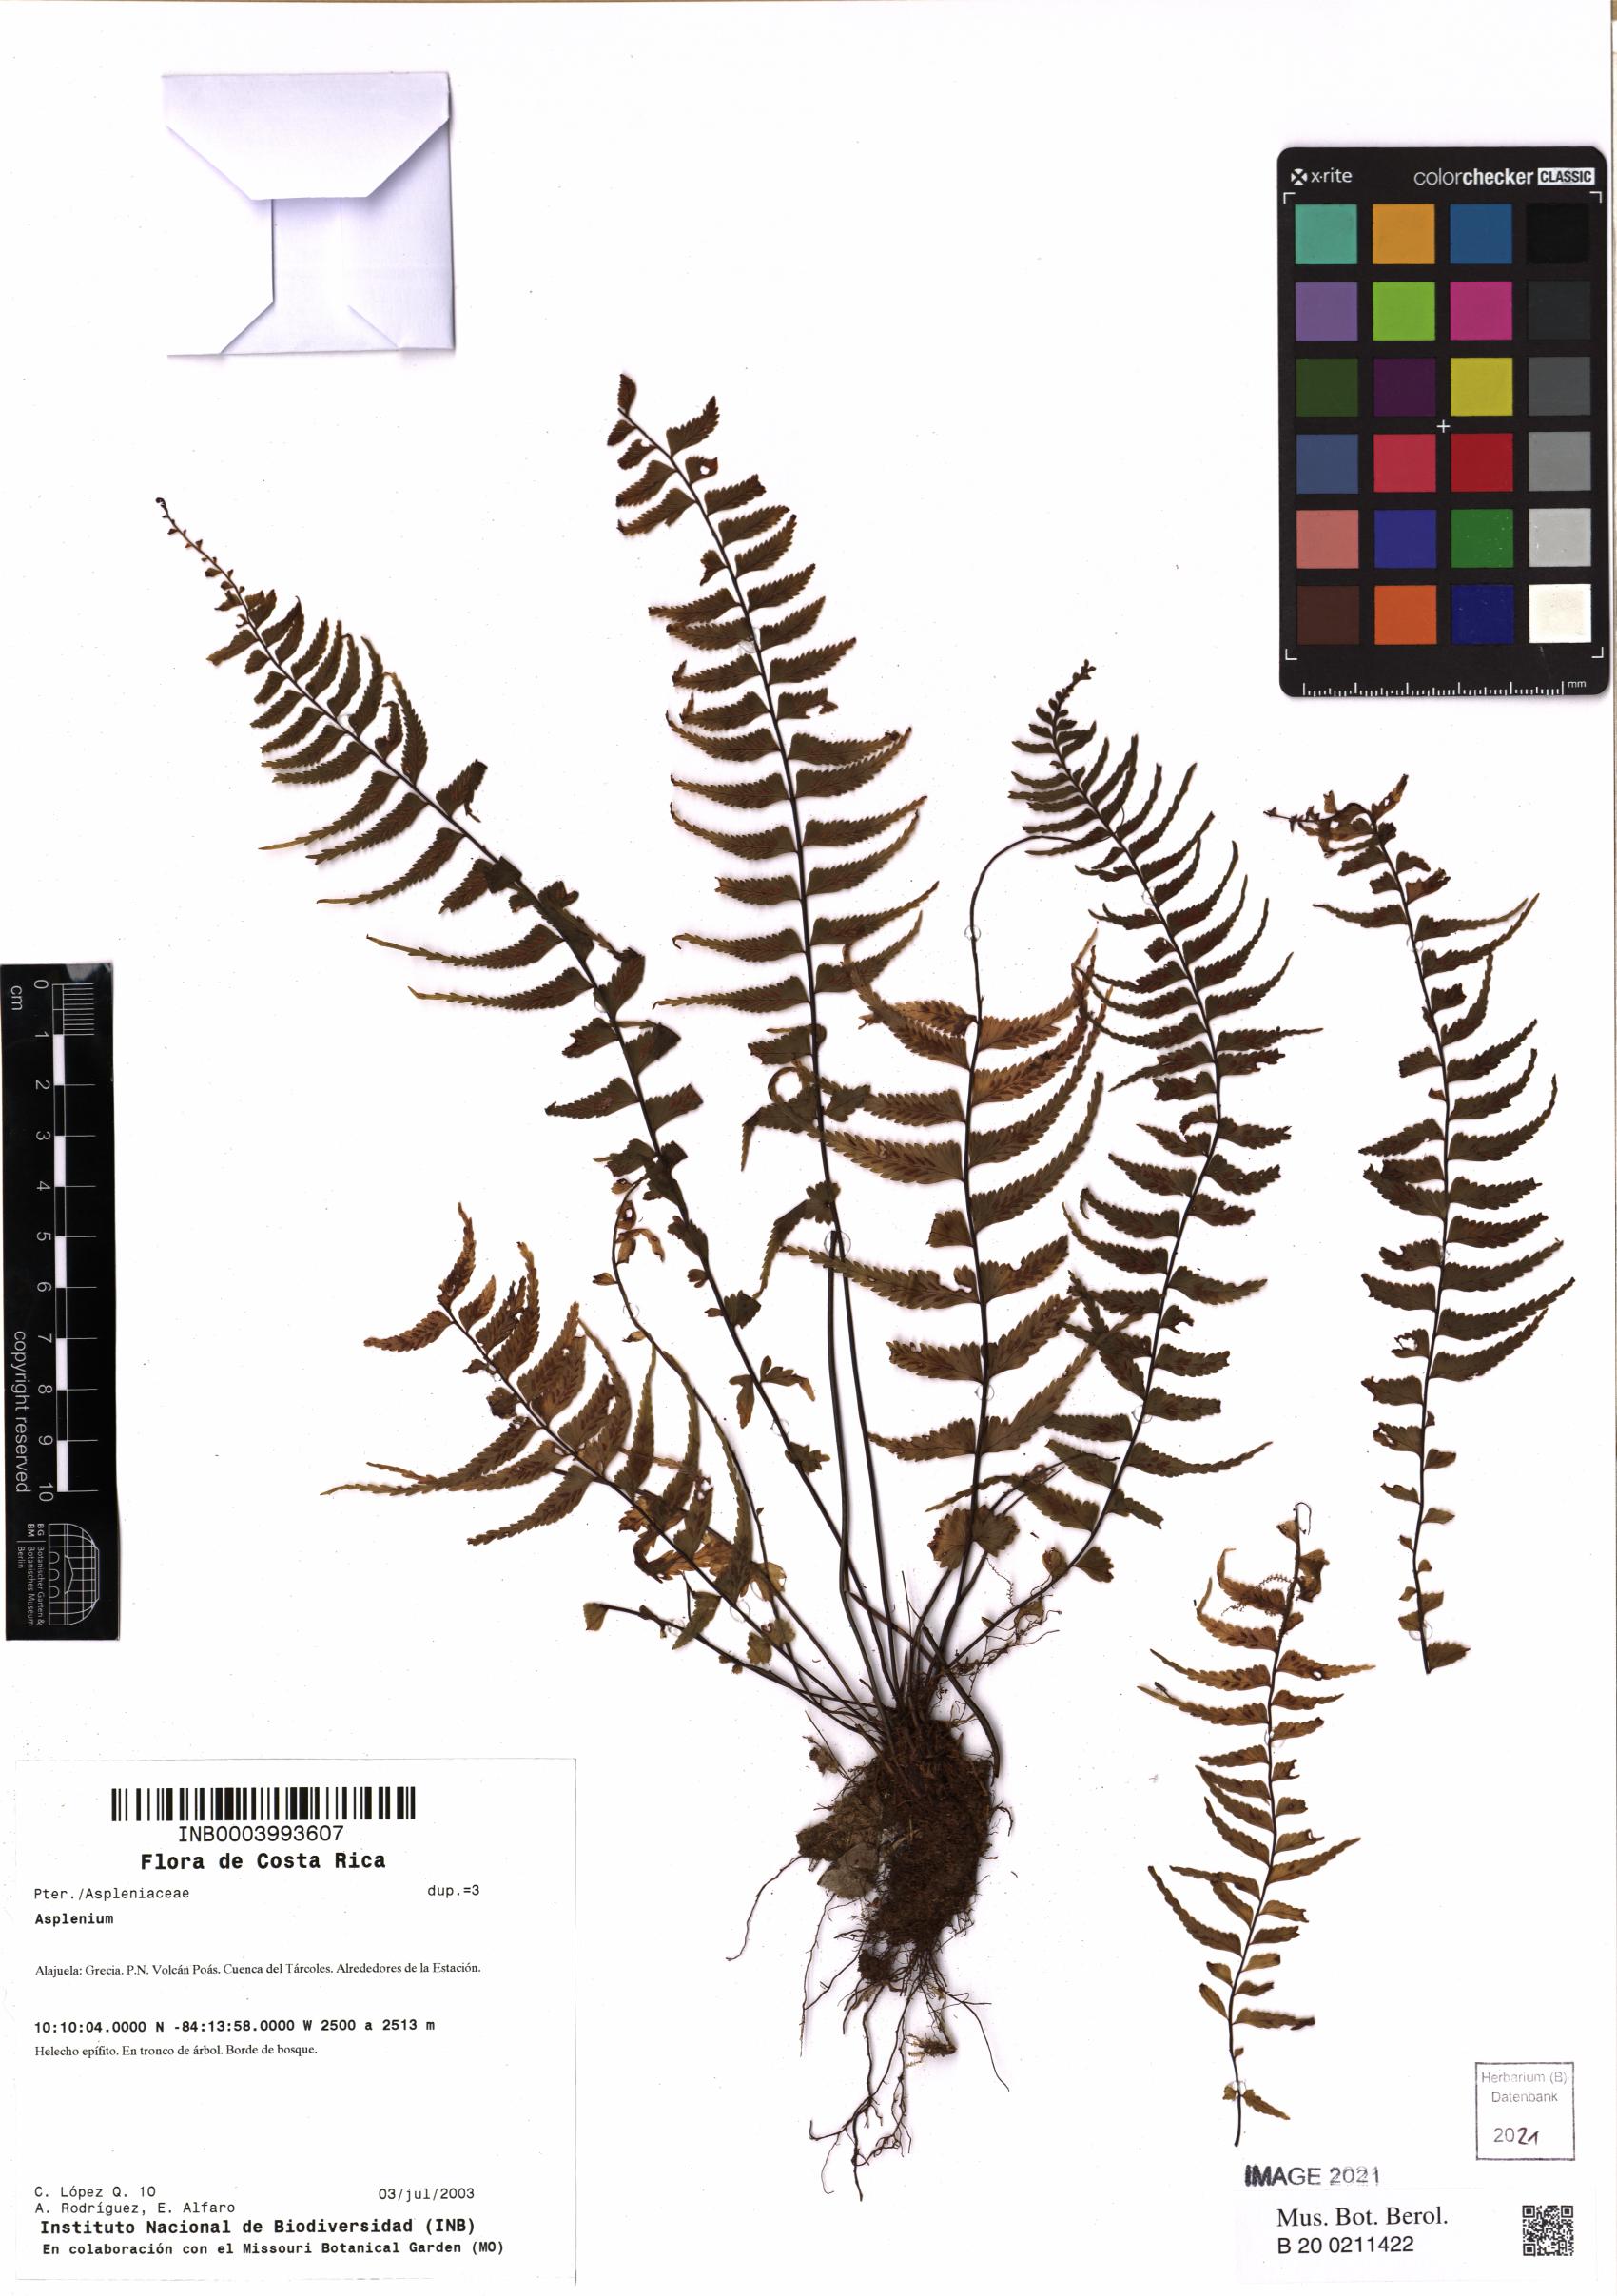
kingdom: Plantae
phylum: Tracheophyta
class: Polypodiopsida
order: Polypodiales
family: Aspleniaceae
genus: Asplenium
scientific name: Asplenium
